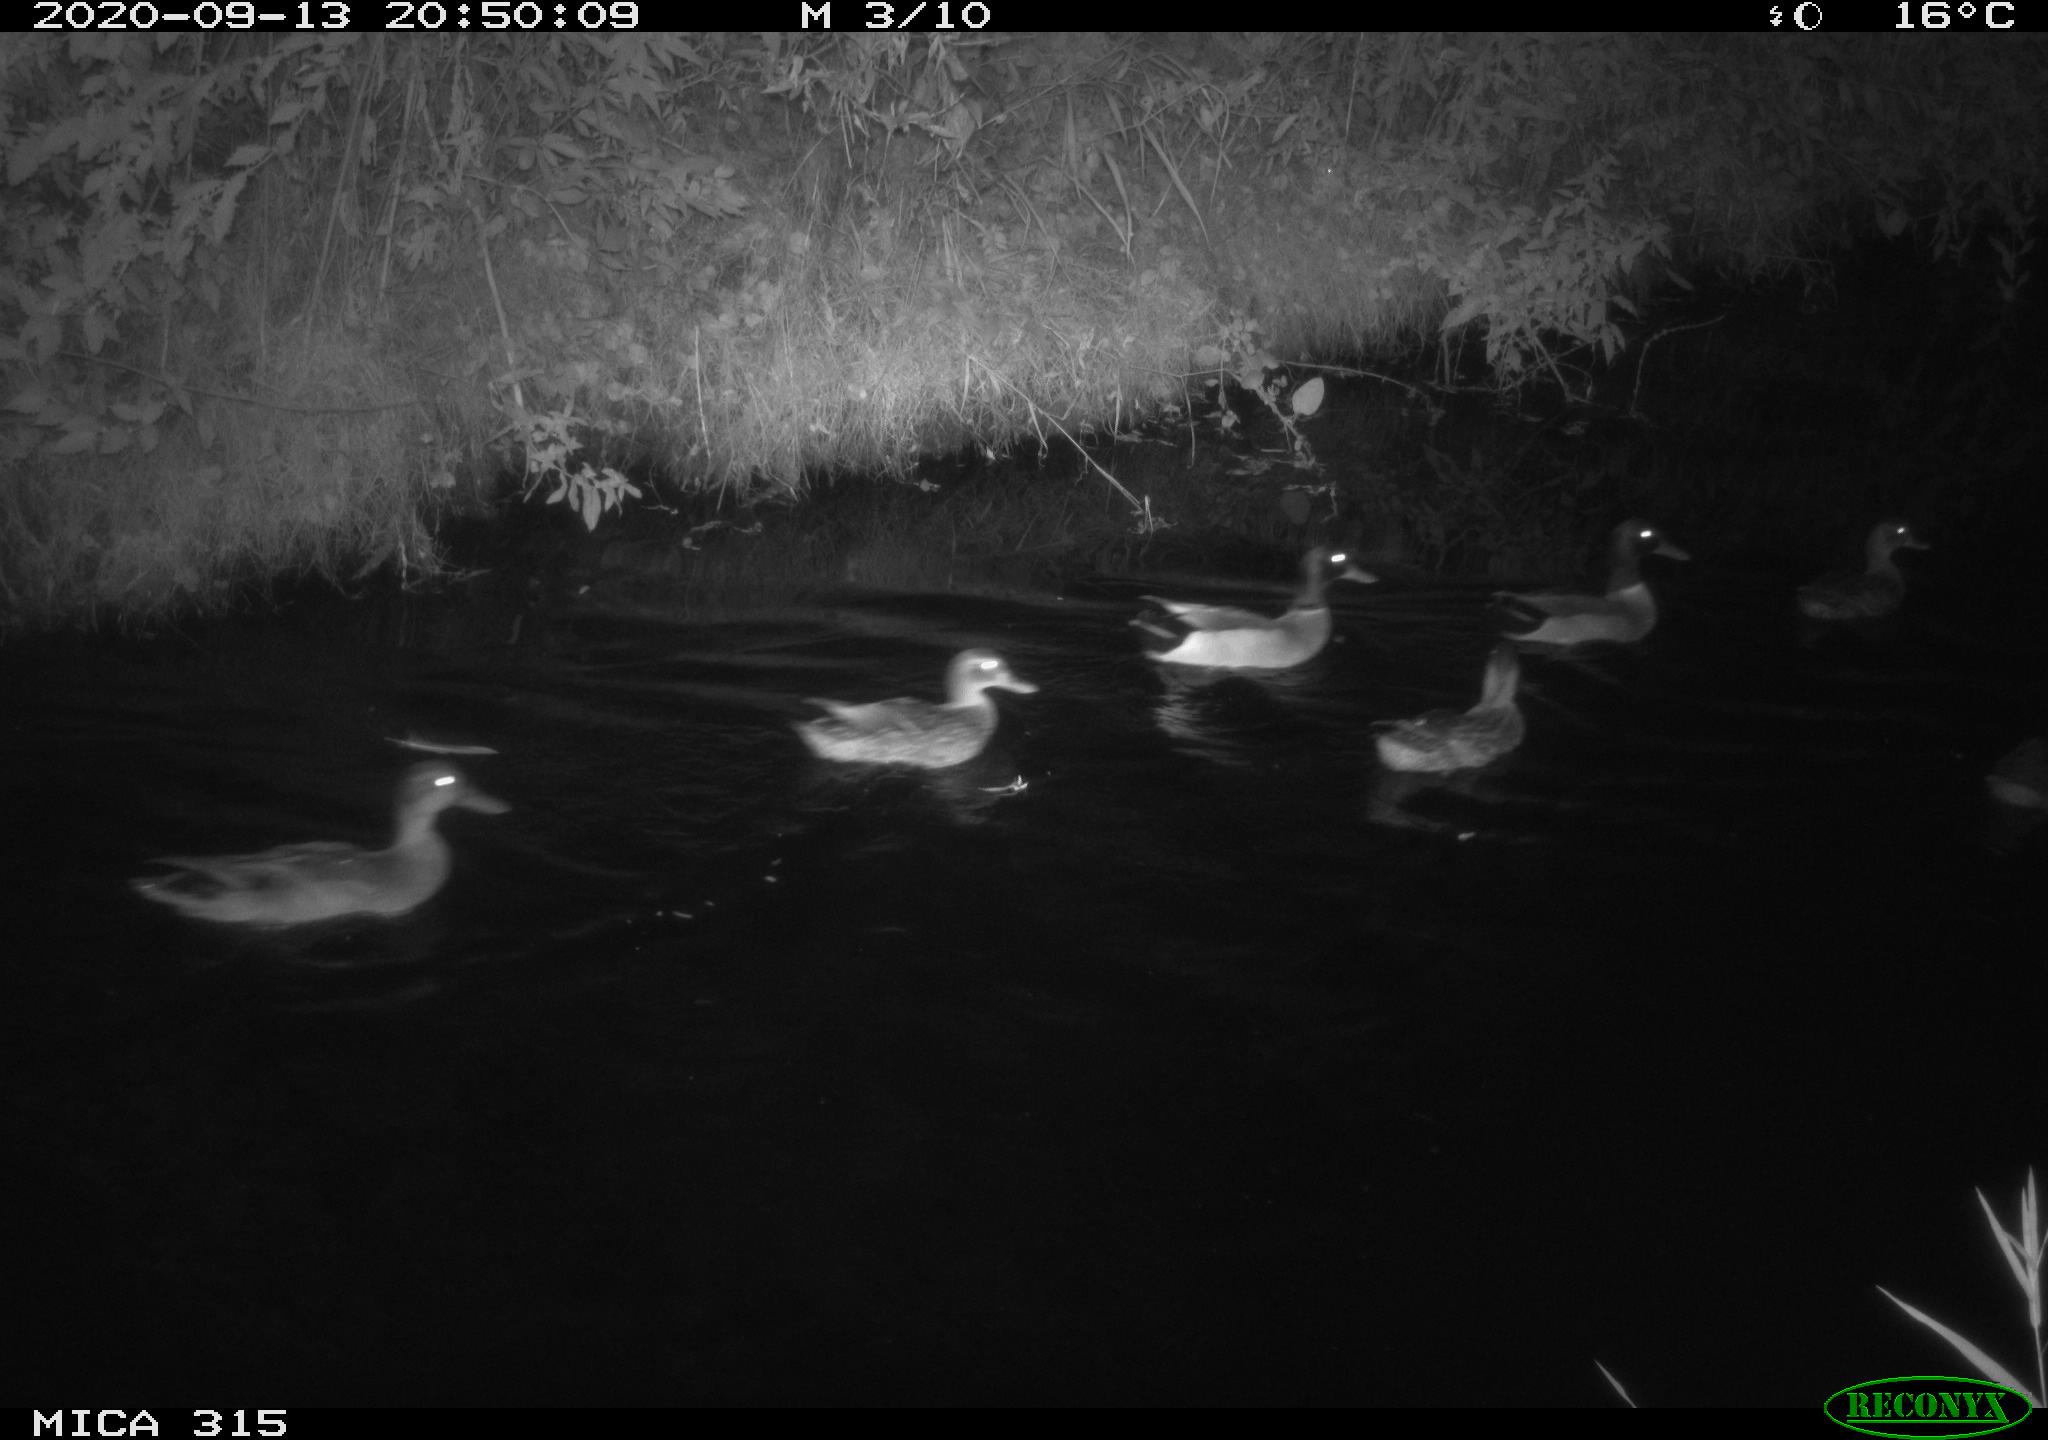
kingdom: Animalia
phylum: Chordata
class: Aves
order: Anseriformes
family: Anatidae
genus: Anas
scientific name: Anas platyrhynchos
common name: Mallard
